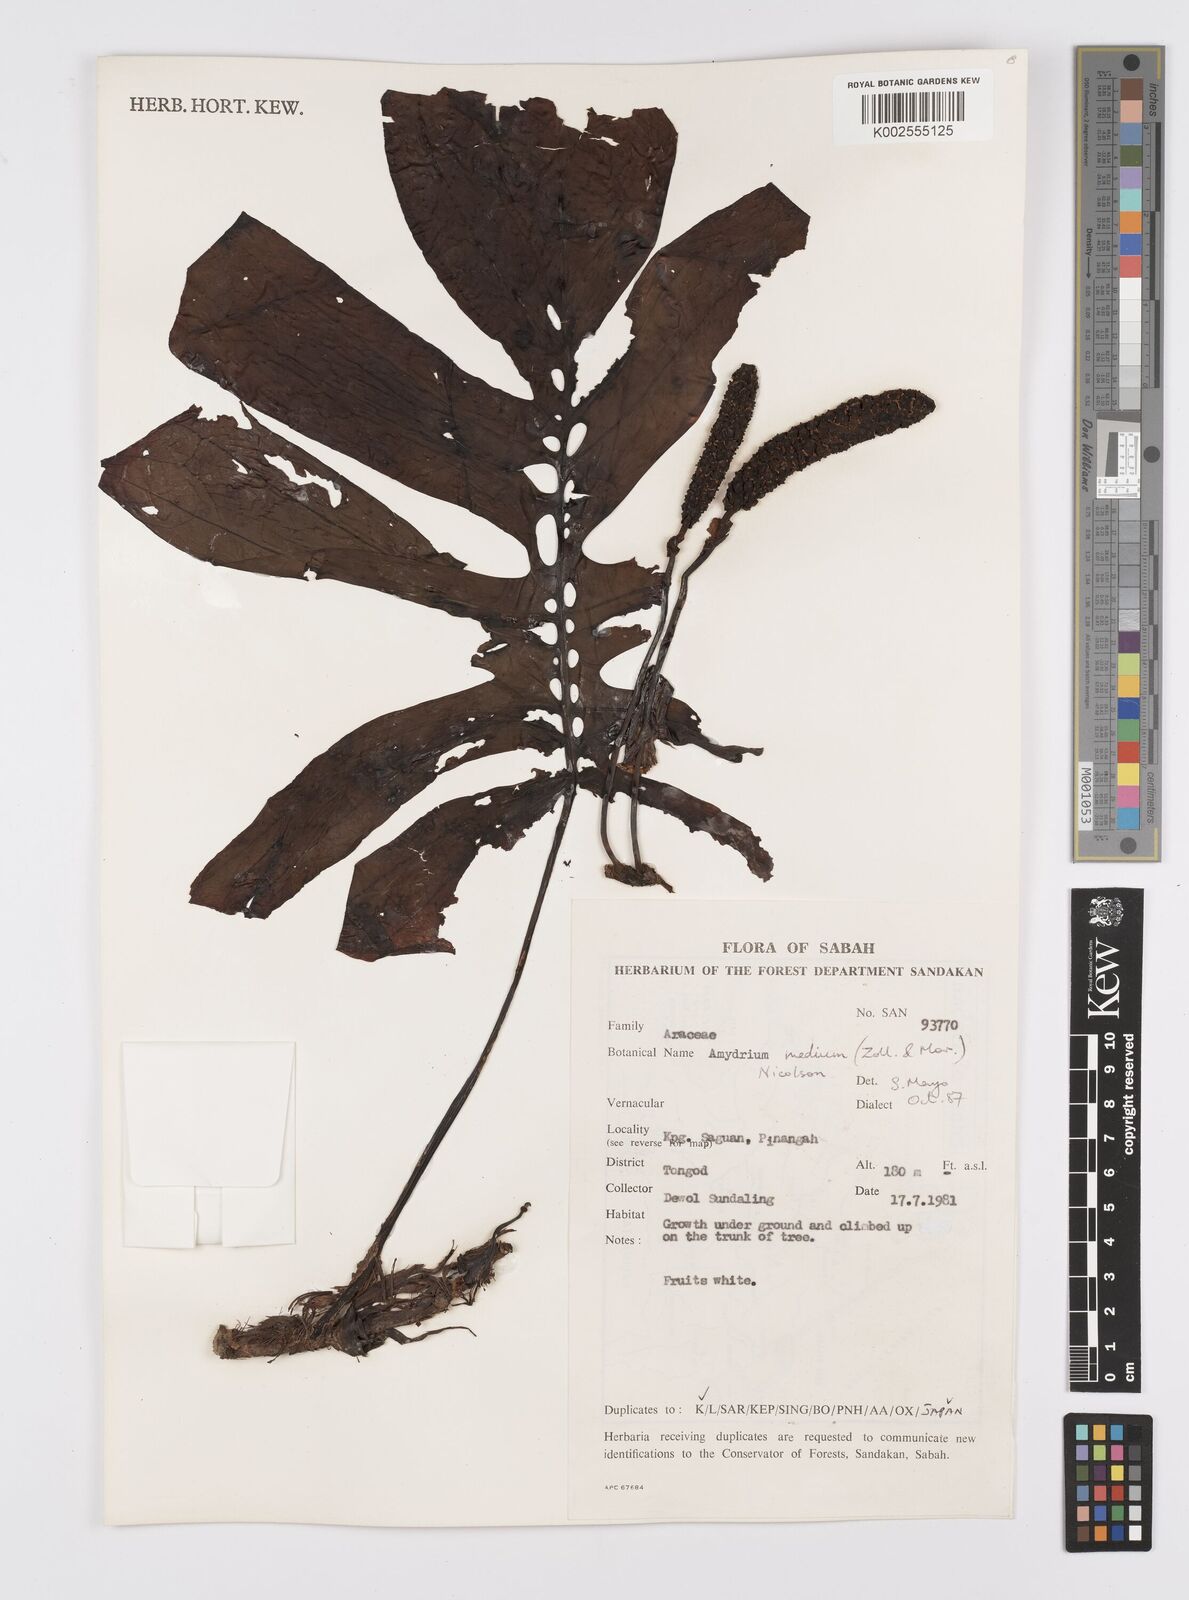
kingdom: Plantae
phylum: Tracheophyta
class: Liliopsida
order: Alismatales
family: Araceae
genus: Amydrium
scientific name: Amydrium medium
